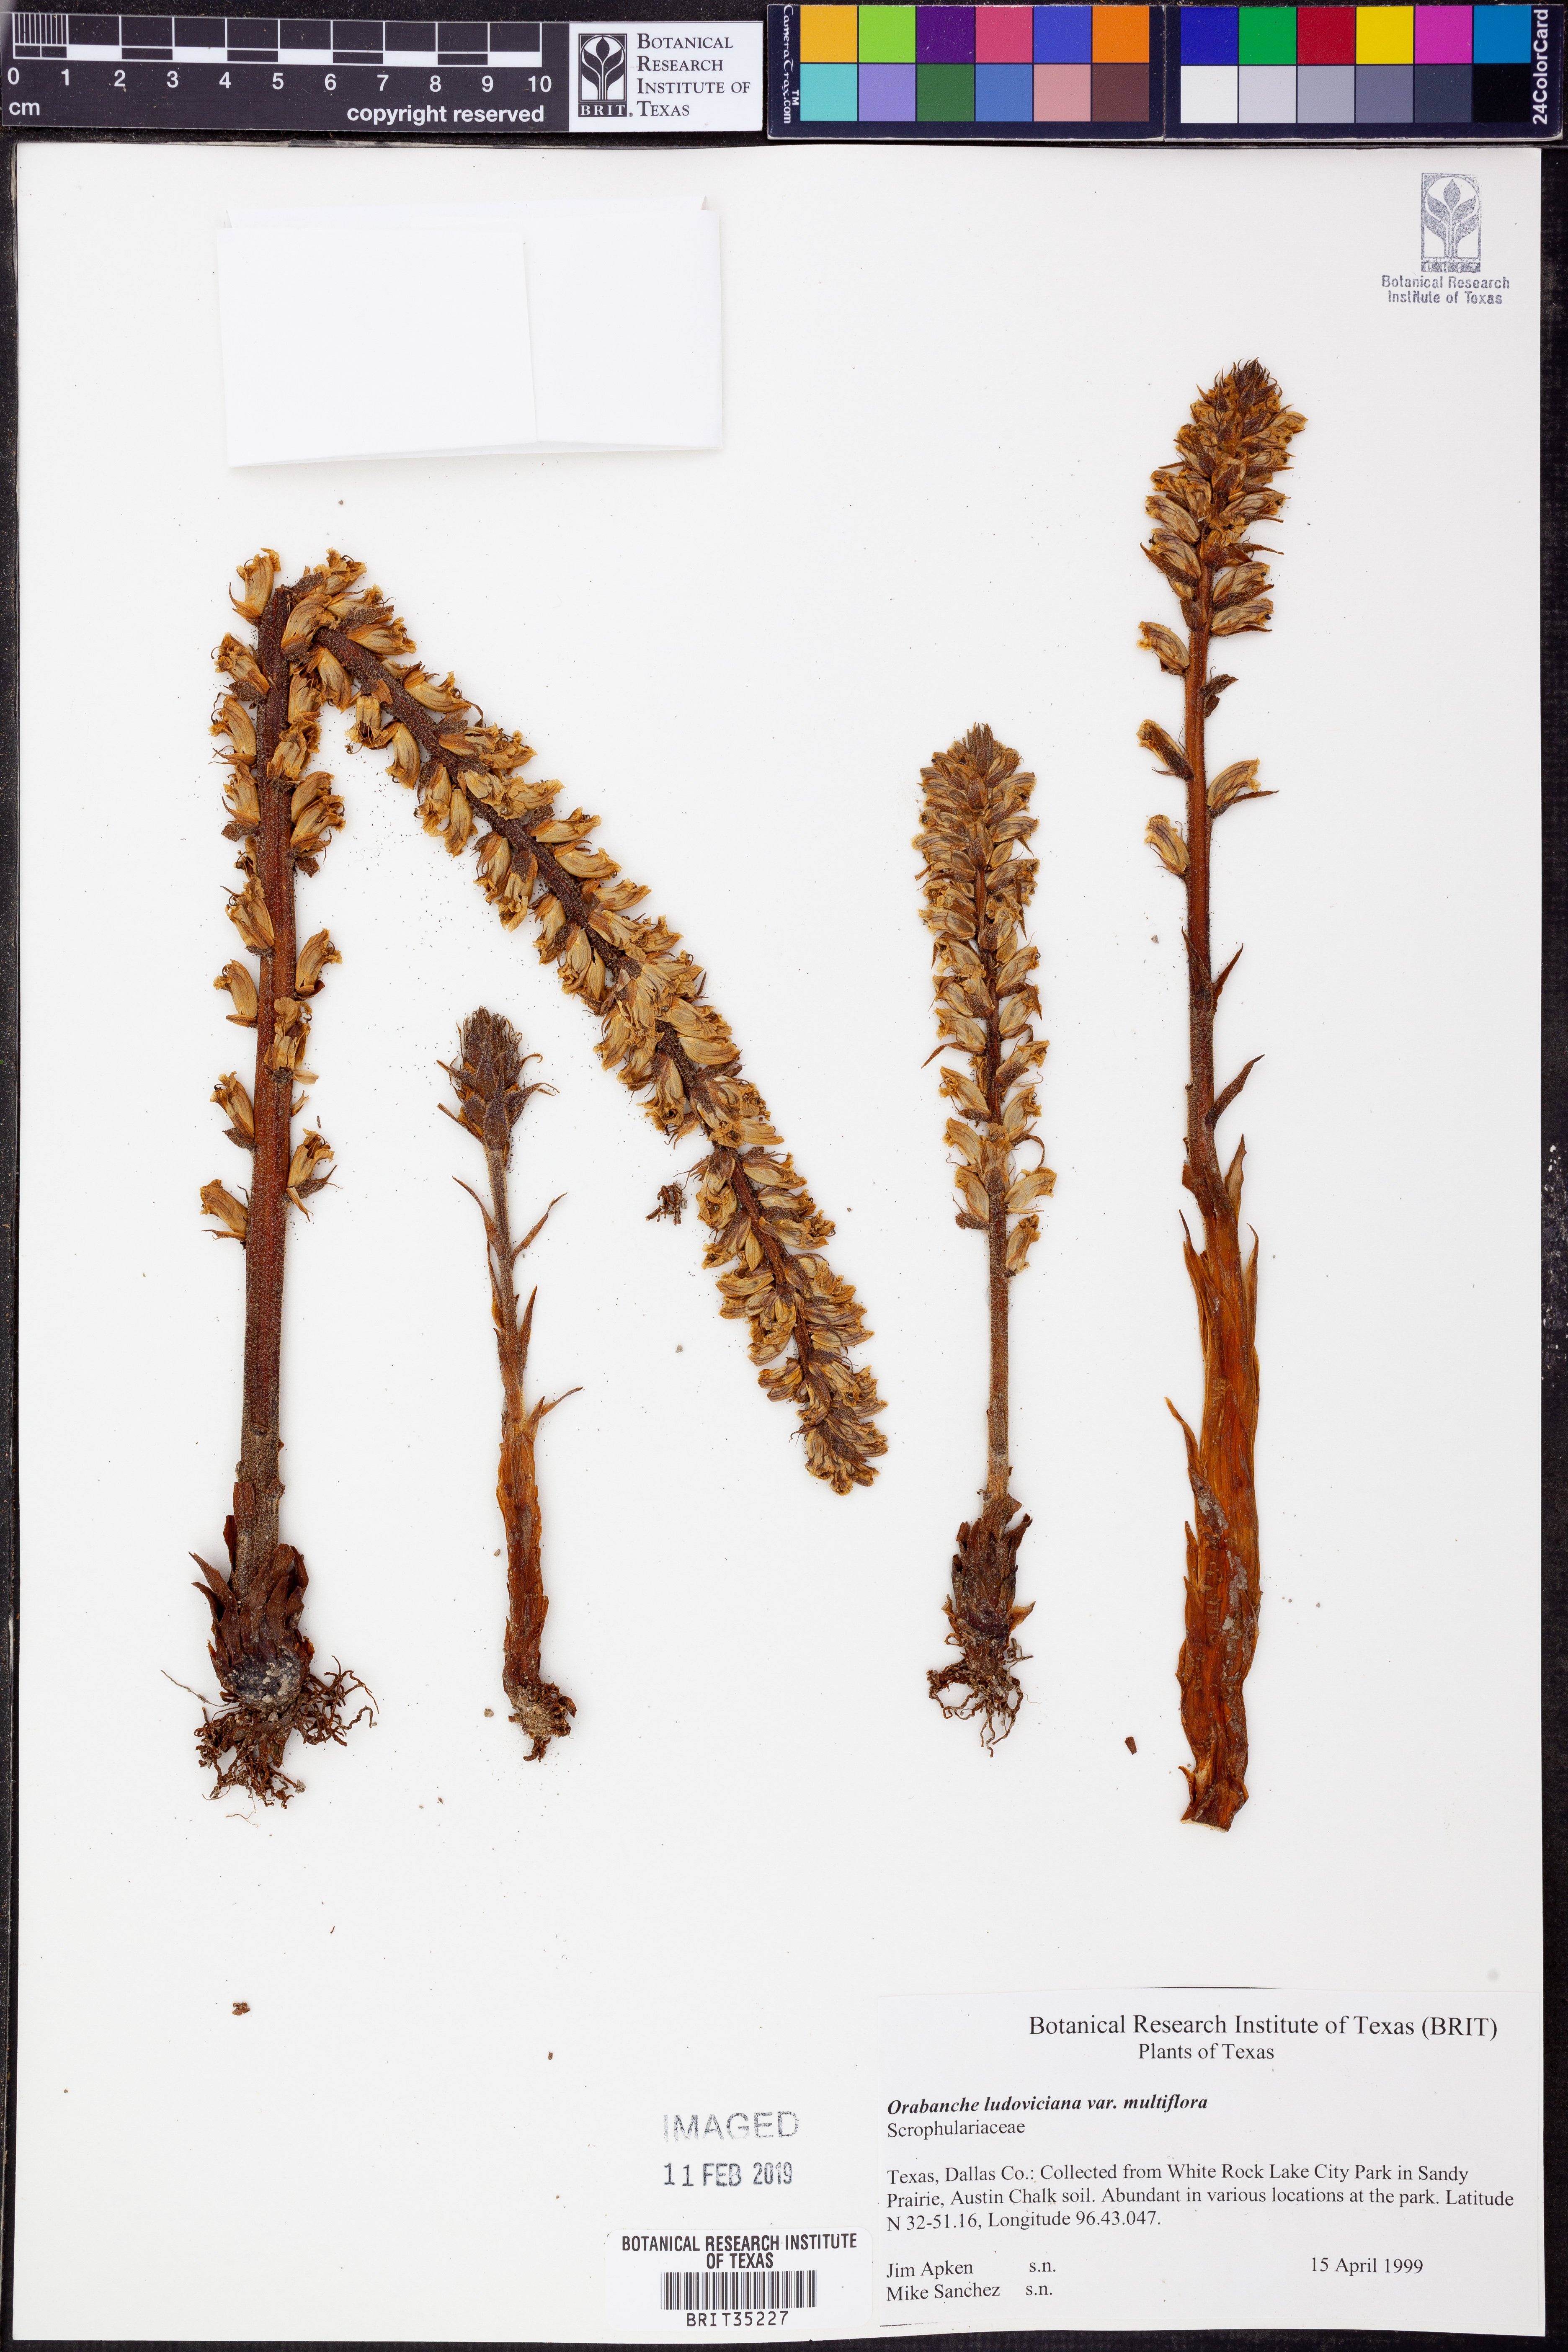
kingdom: Plantae
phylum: Tracheophyta
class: Magnoliopsida
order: Lamiales
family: Orobanchaceae
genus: Aphyllon
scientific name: Aphyllon multiflorum
